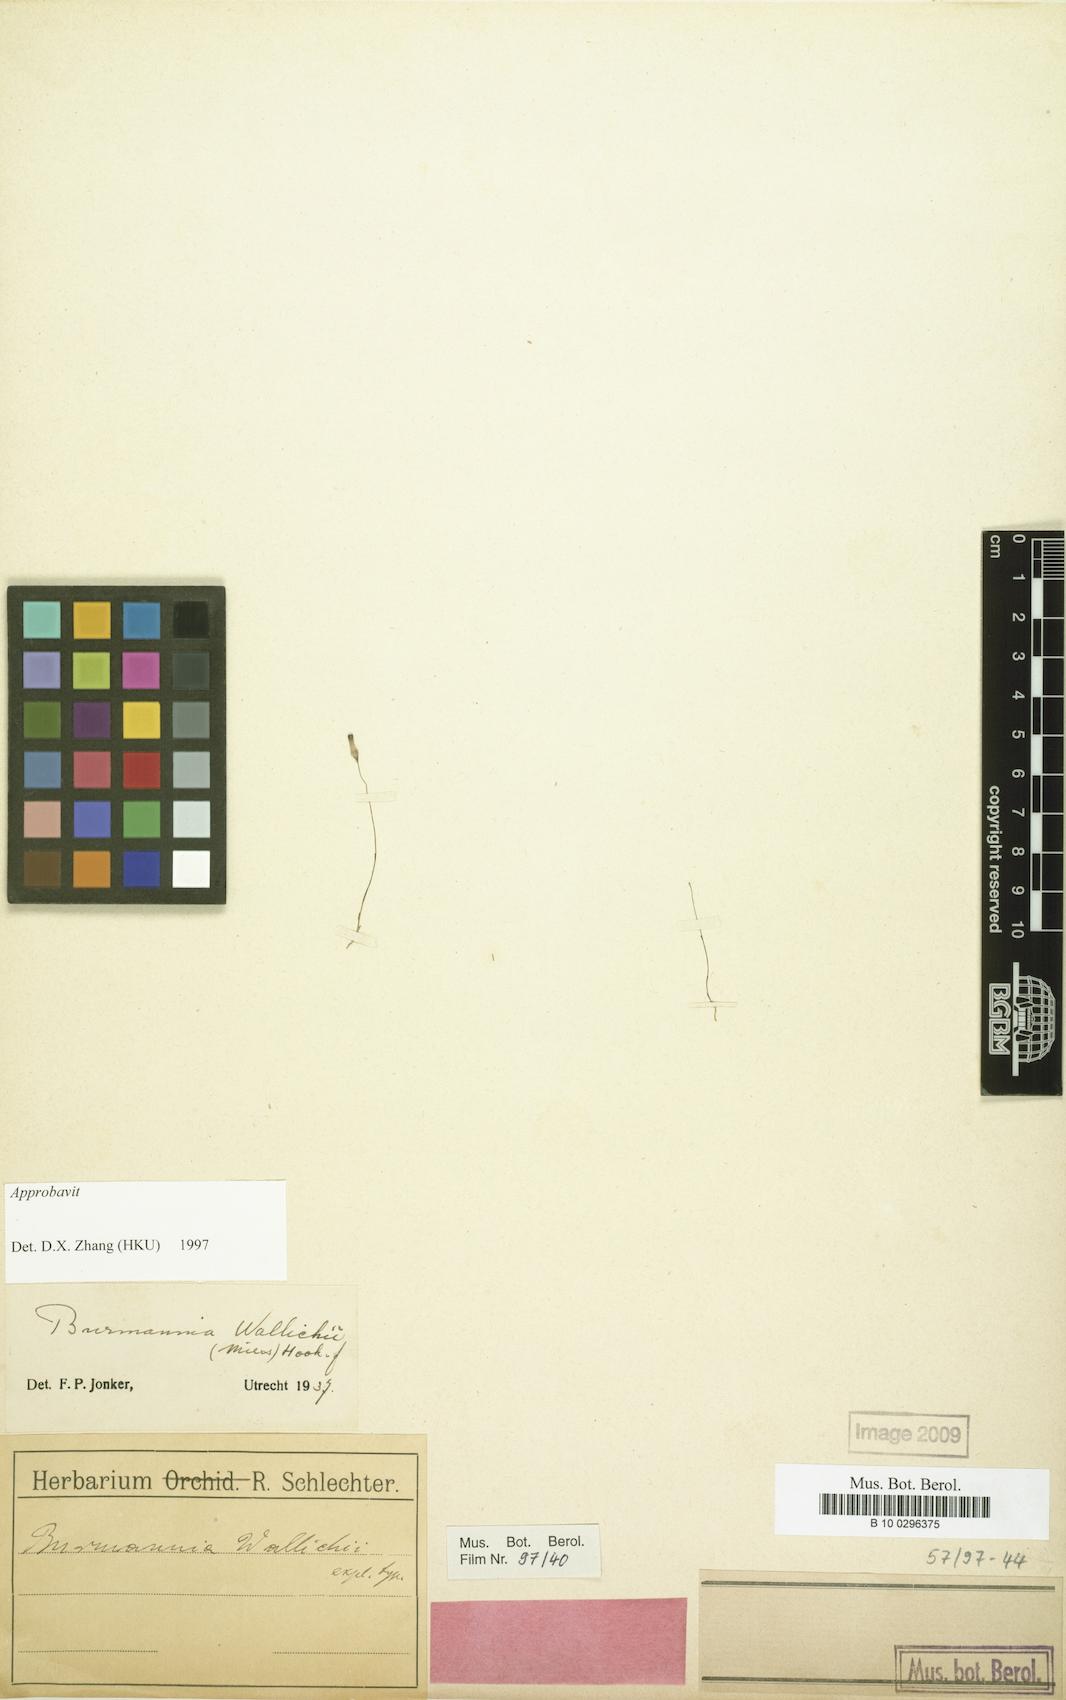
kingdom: Plantae
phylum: Tracheophyta
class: Liliopsida
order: Dioscoreales
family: Burmanniaceae
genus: Burmannia
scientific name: Burmannia wallichii
